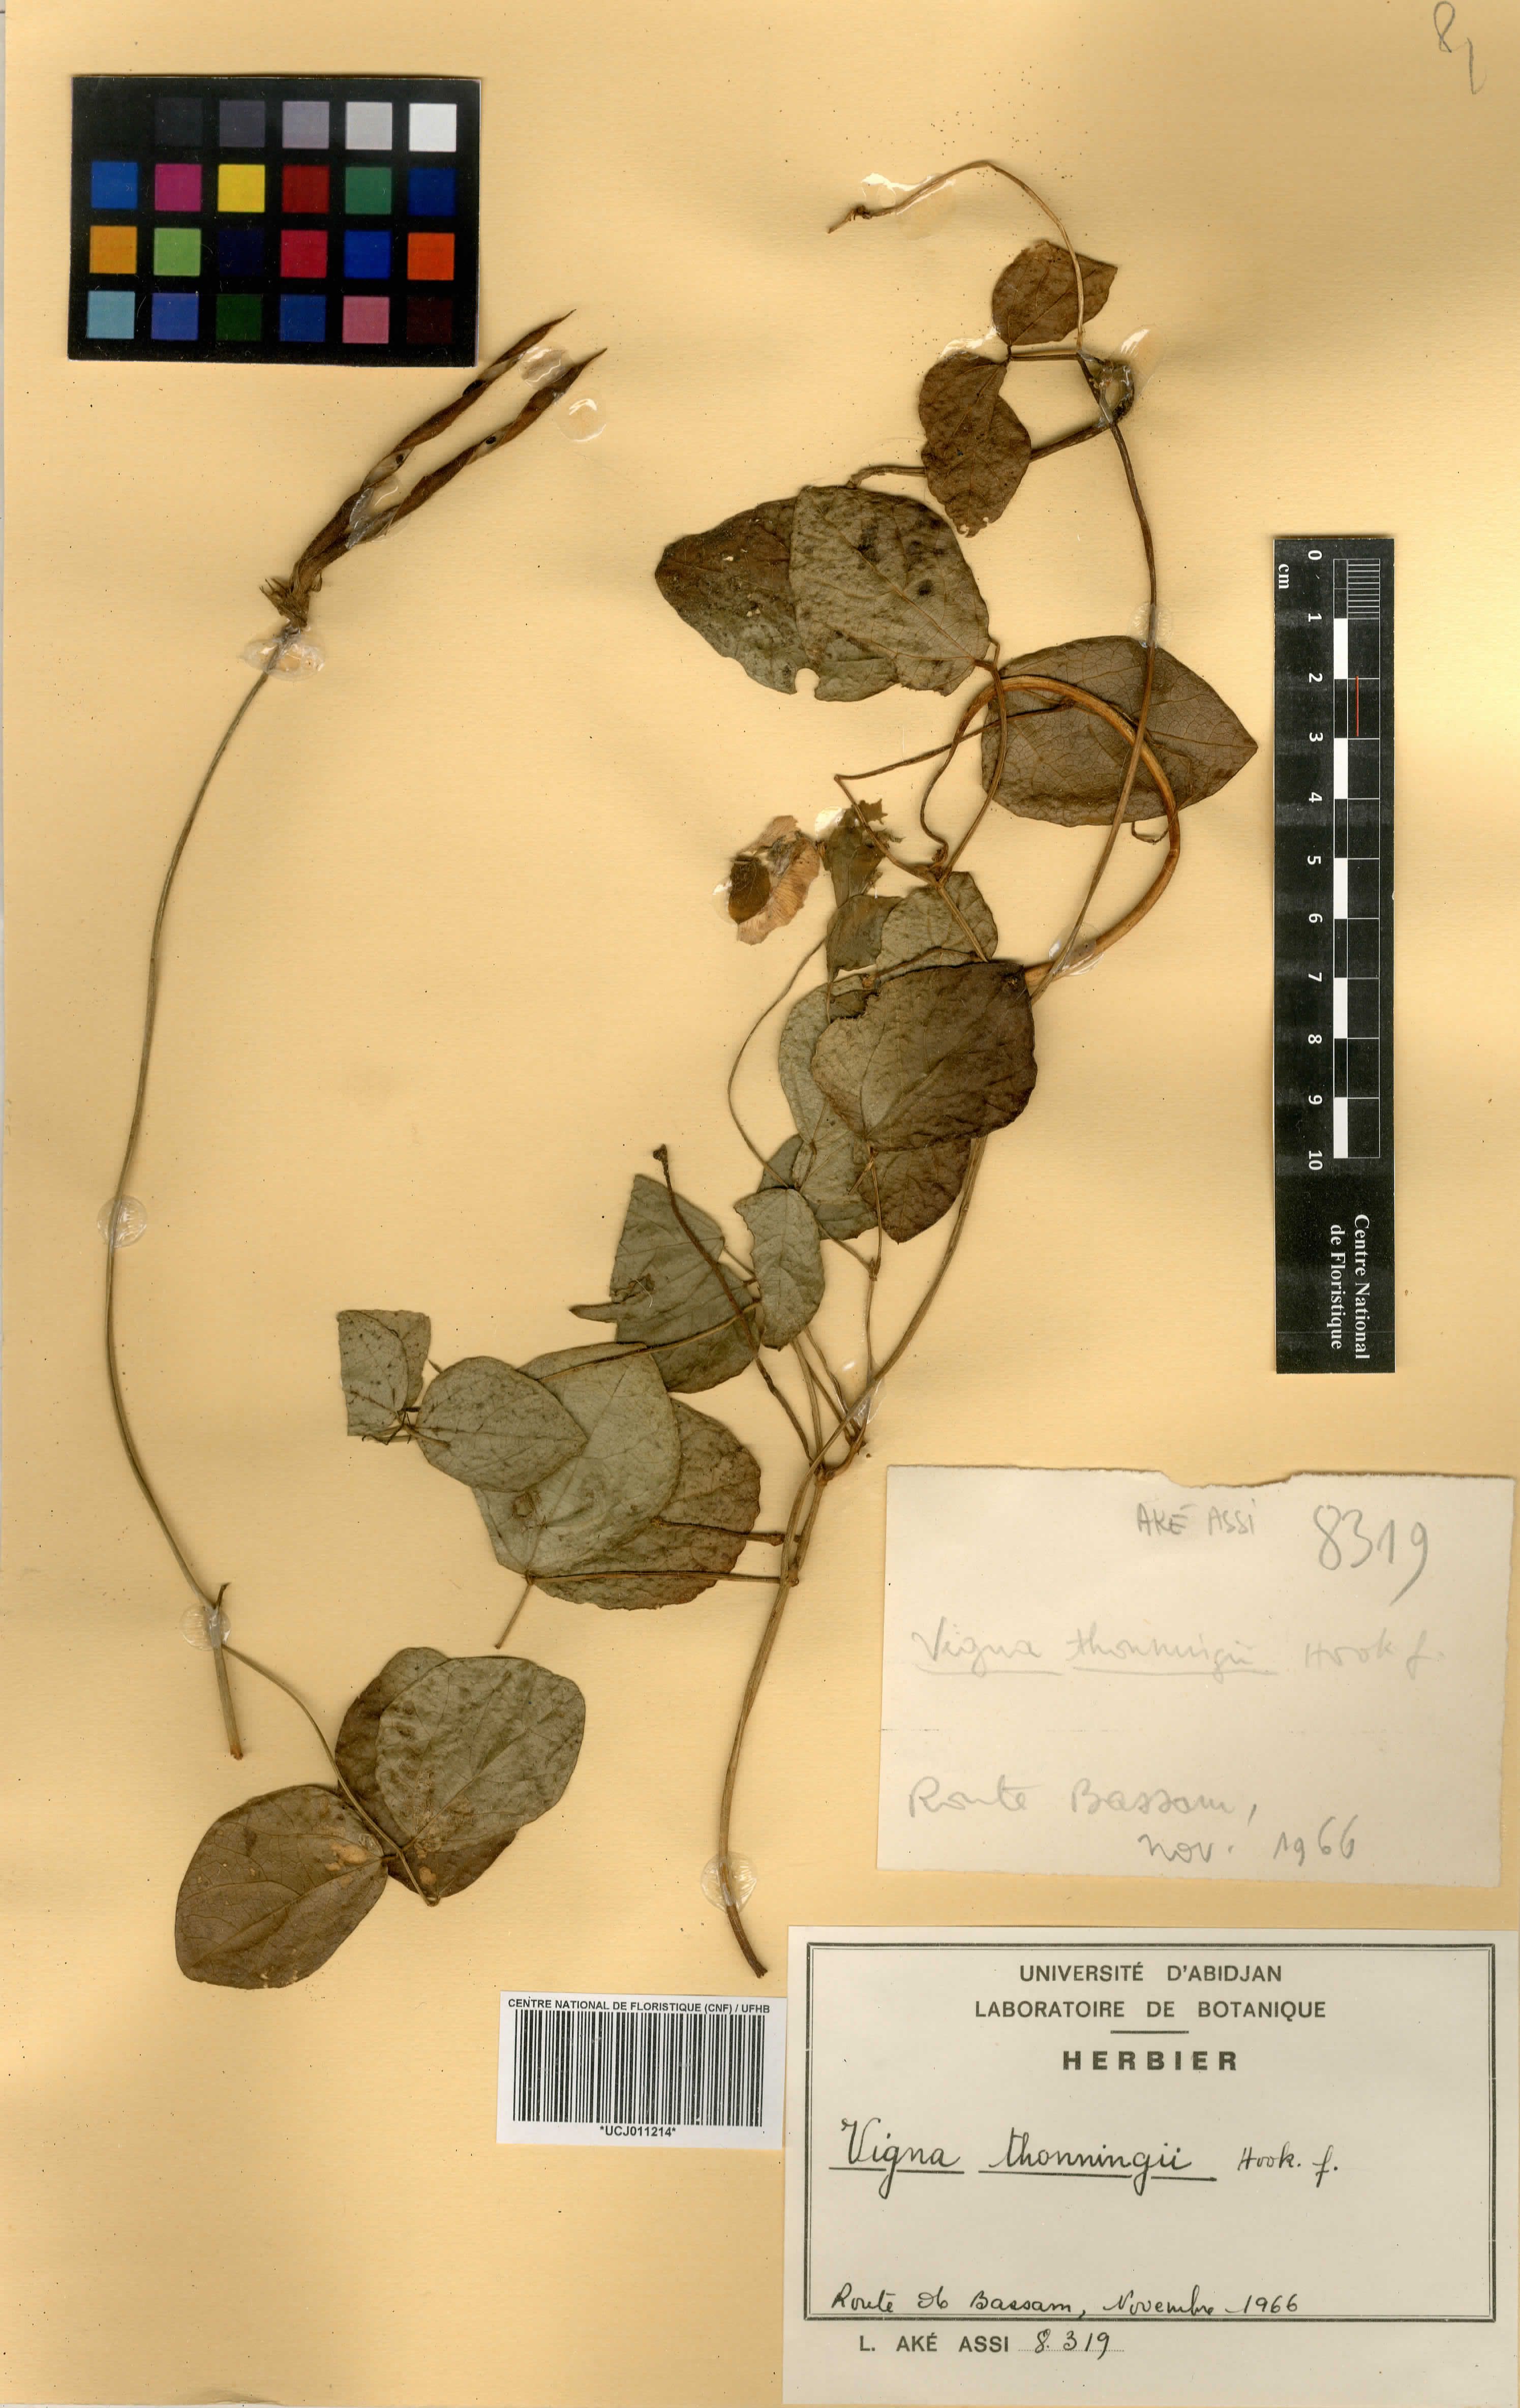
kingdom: Plantae
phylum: Tracheophyta
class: Magnoliopsida
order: Fabales
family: Fabaceae
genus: Vigna
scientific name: Vigna vexillata
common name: Zombi pea
